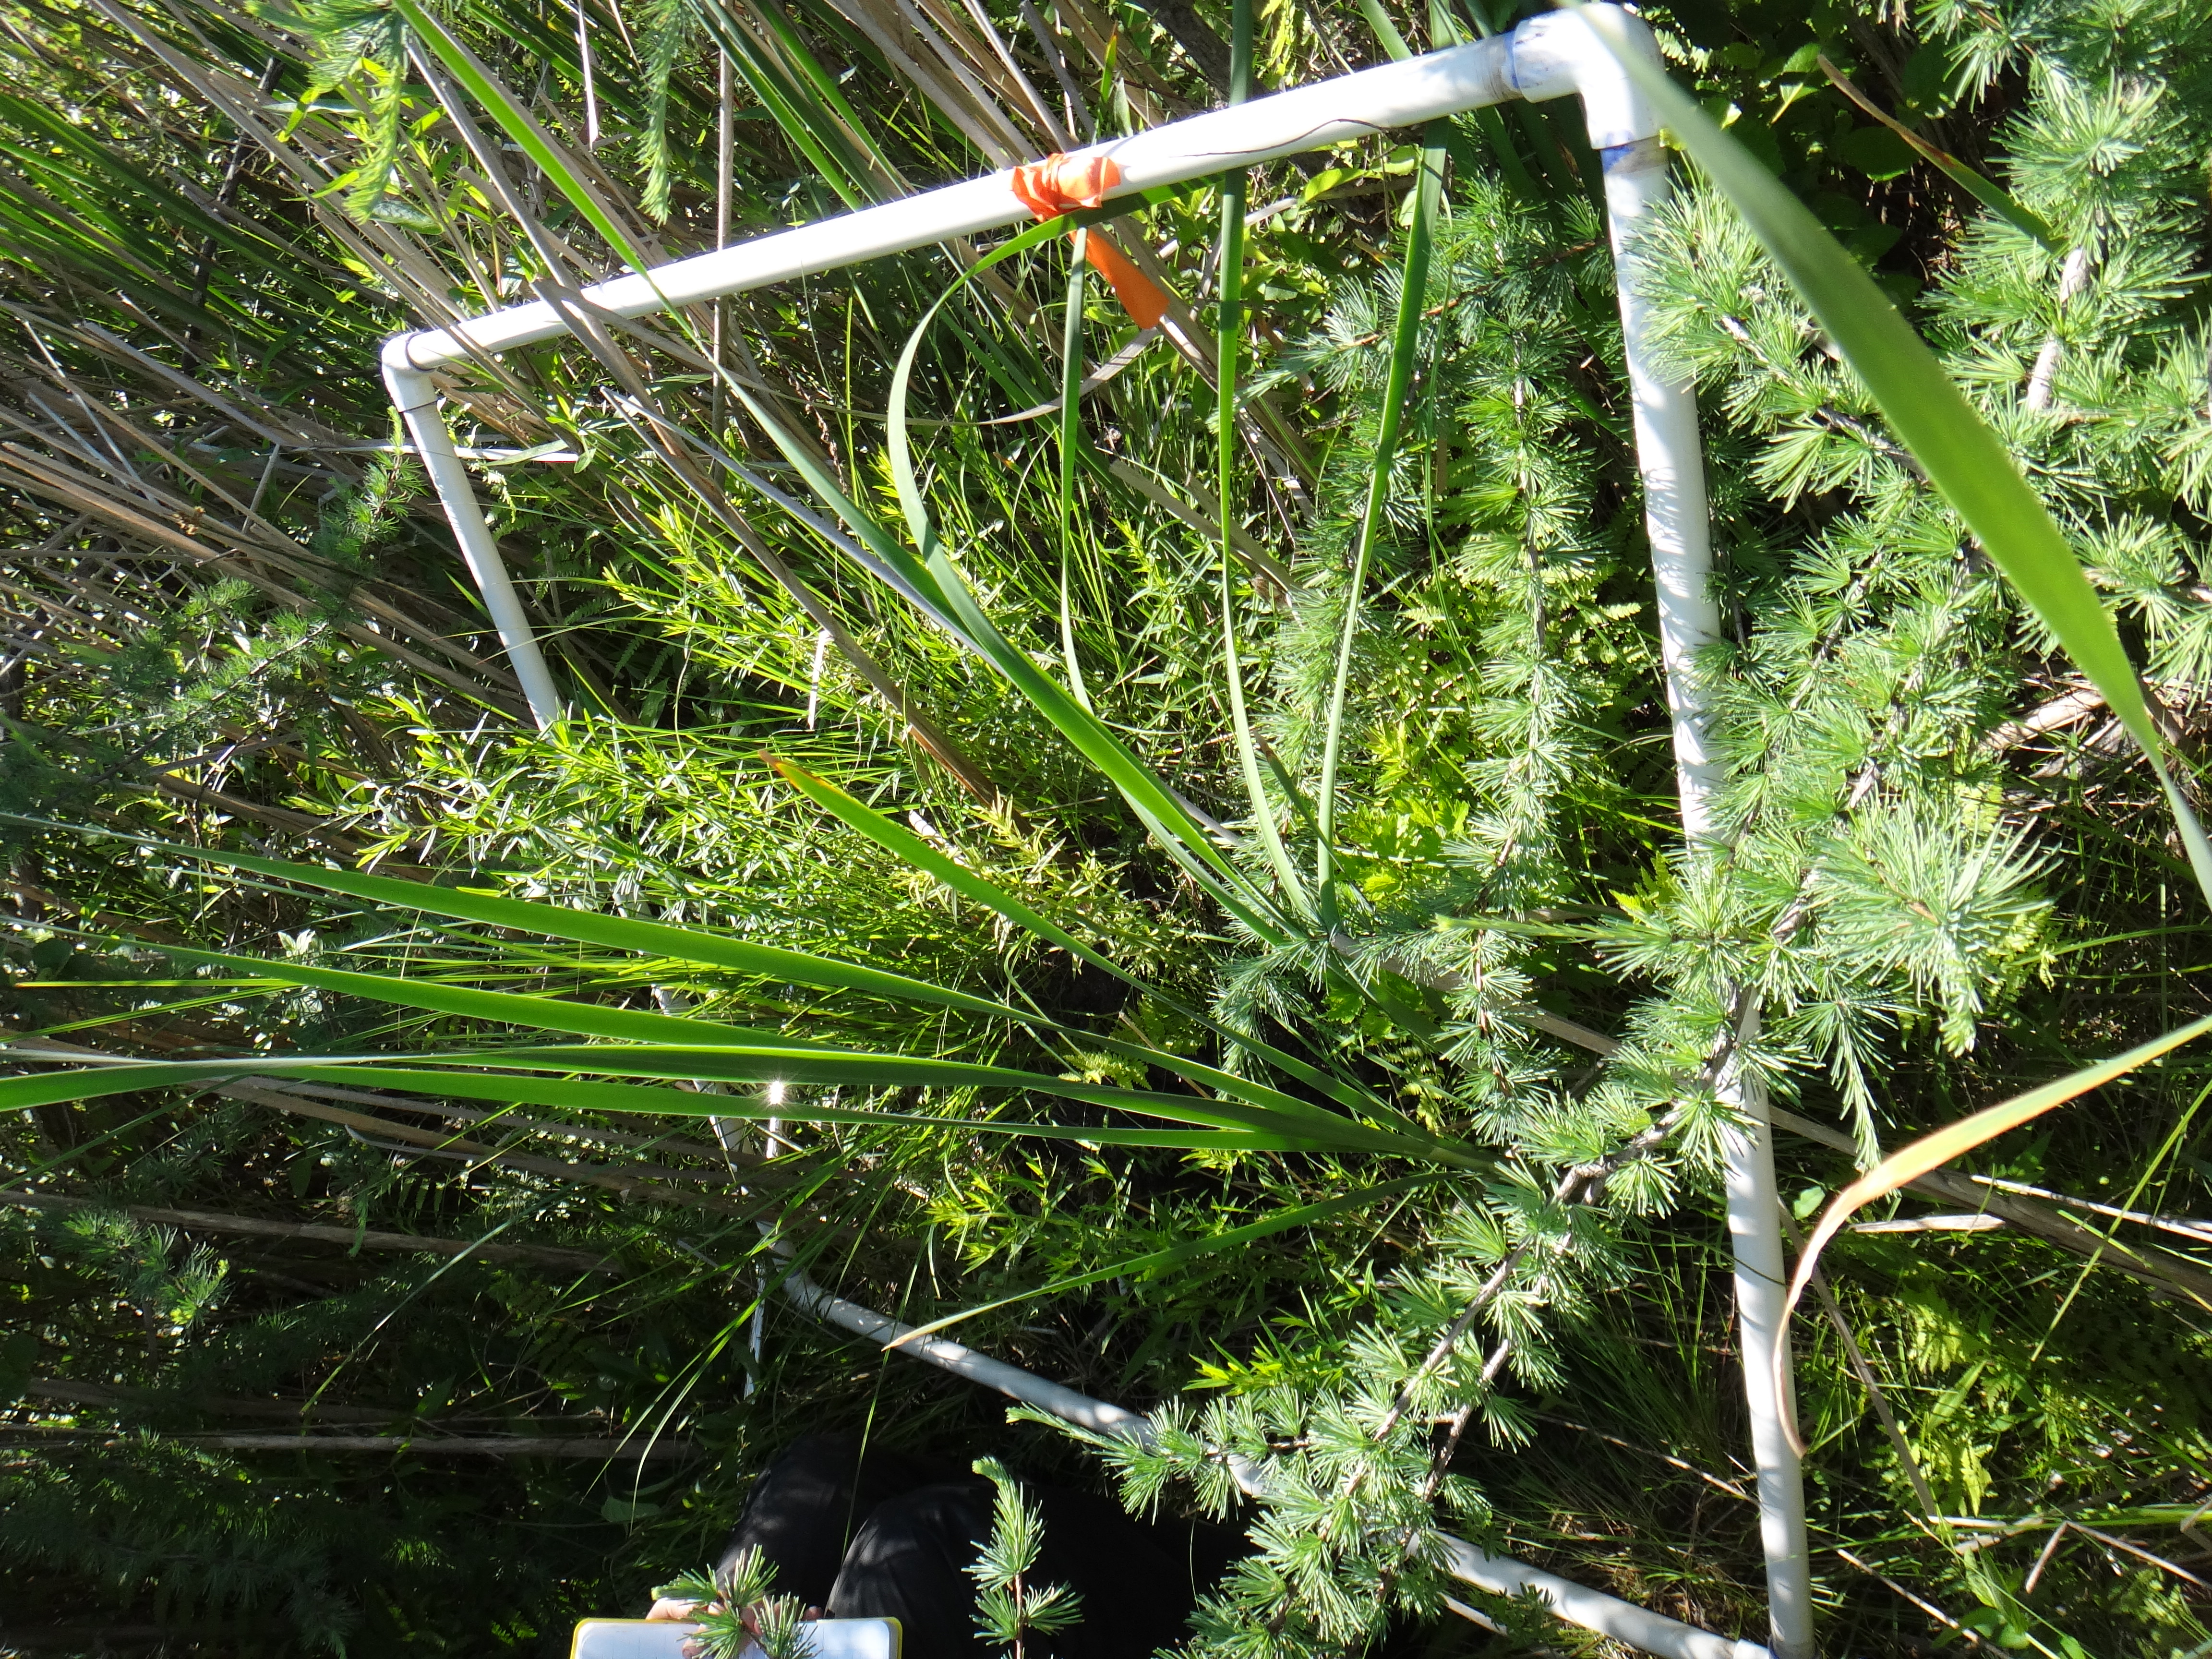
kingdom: Plantae
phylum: Tracheophyta
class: Magnoliopsida
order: Celastrales
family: Parnassiaceae
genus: Parnassia
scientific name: Parnassia glauca
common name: American grass-of-parnassus
